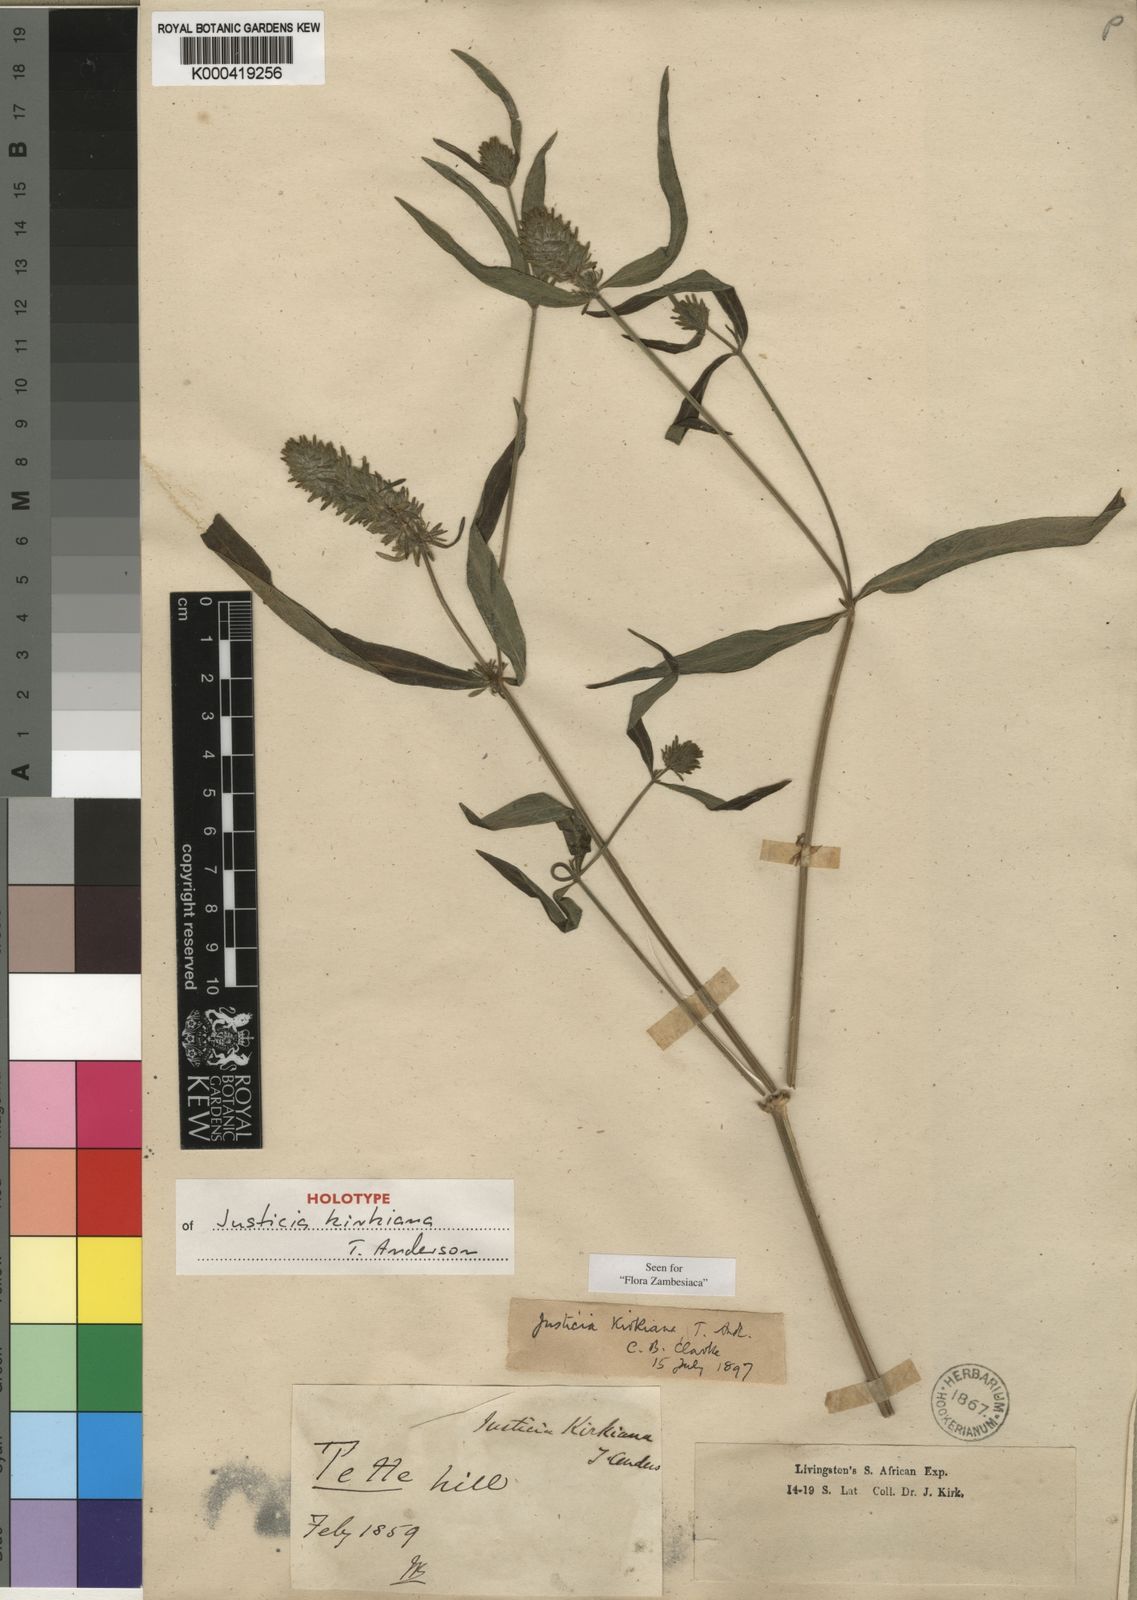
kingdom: Plantae
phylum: Tracheophyta
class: Magnoliopsida
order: Lamiales
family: Acanthaceae
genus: Justicia
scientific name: Justicia kirkiana
